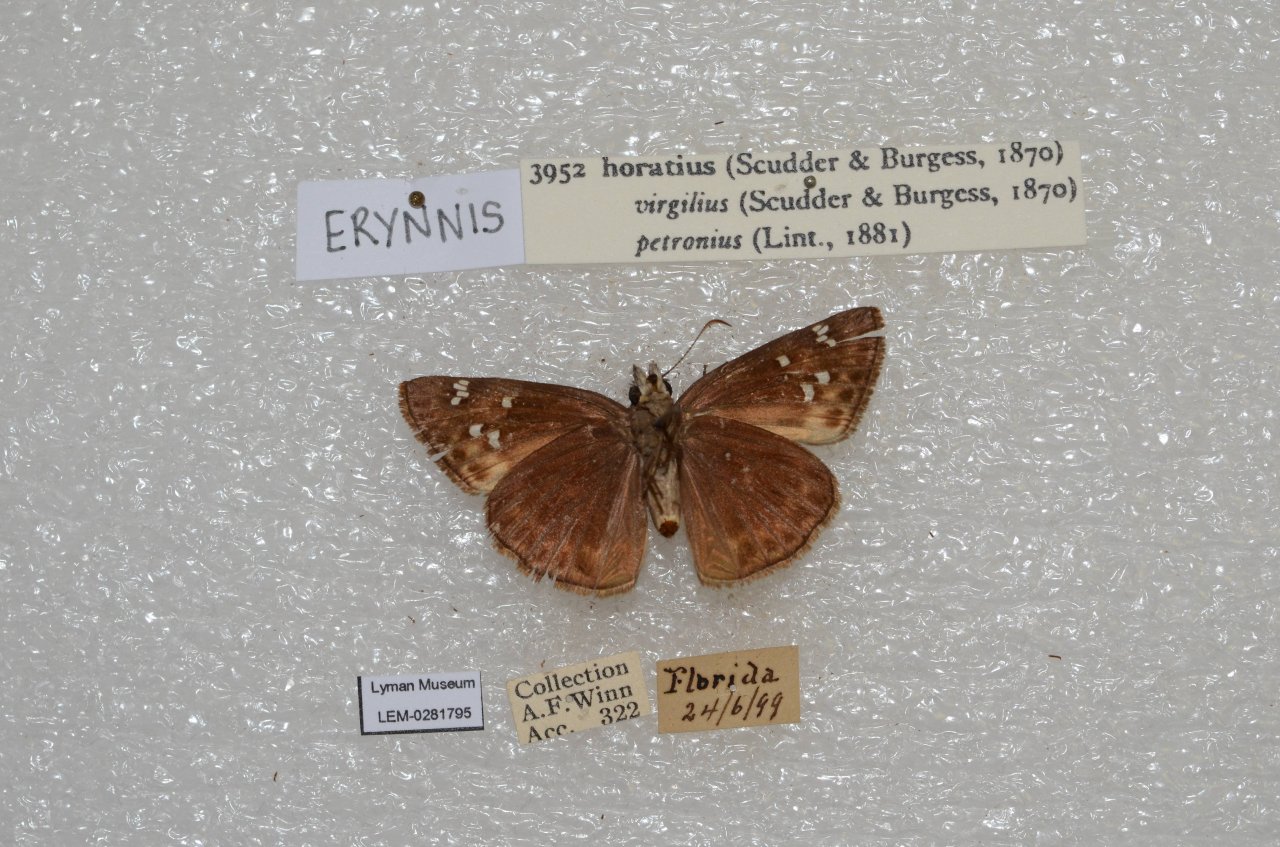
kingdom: Animalia
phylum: Arthropoda
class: Insecta
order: Lepidoptera
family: Hesperiidae
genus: Gesta
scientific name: Gesta
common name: Horace's Duskywing
